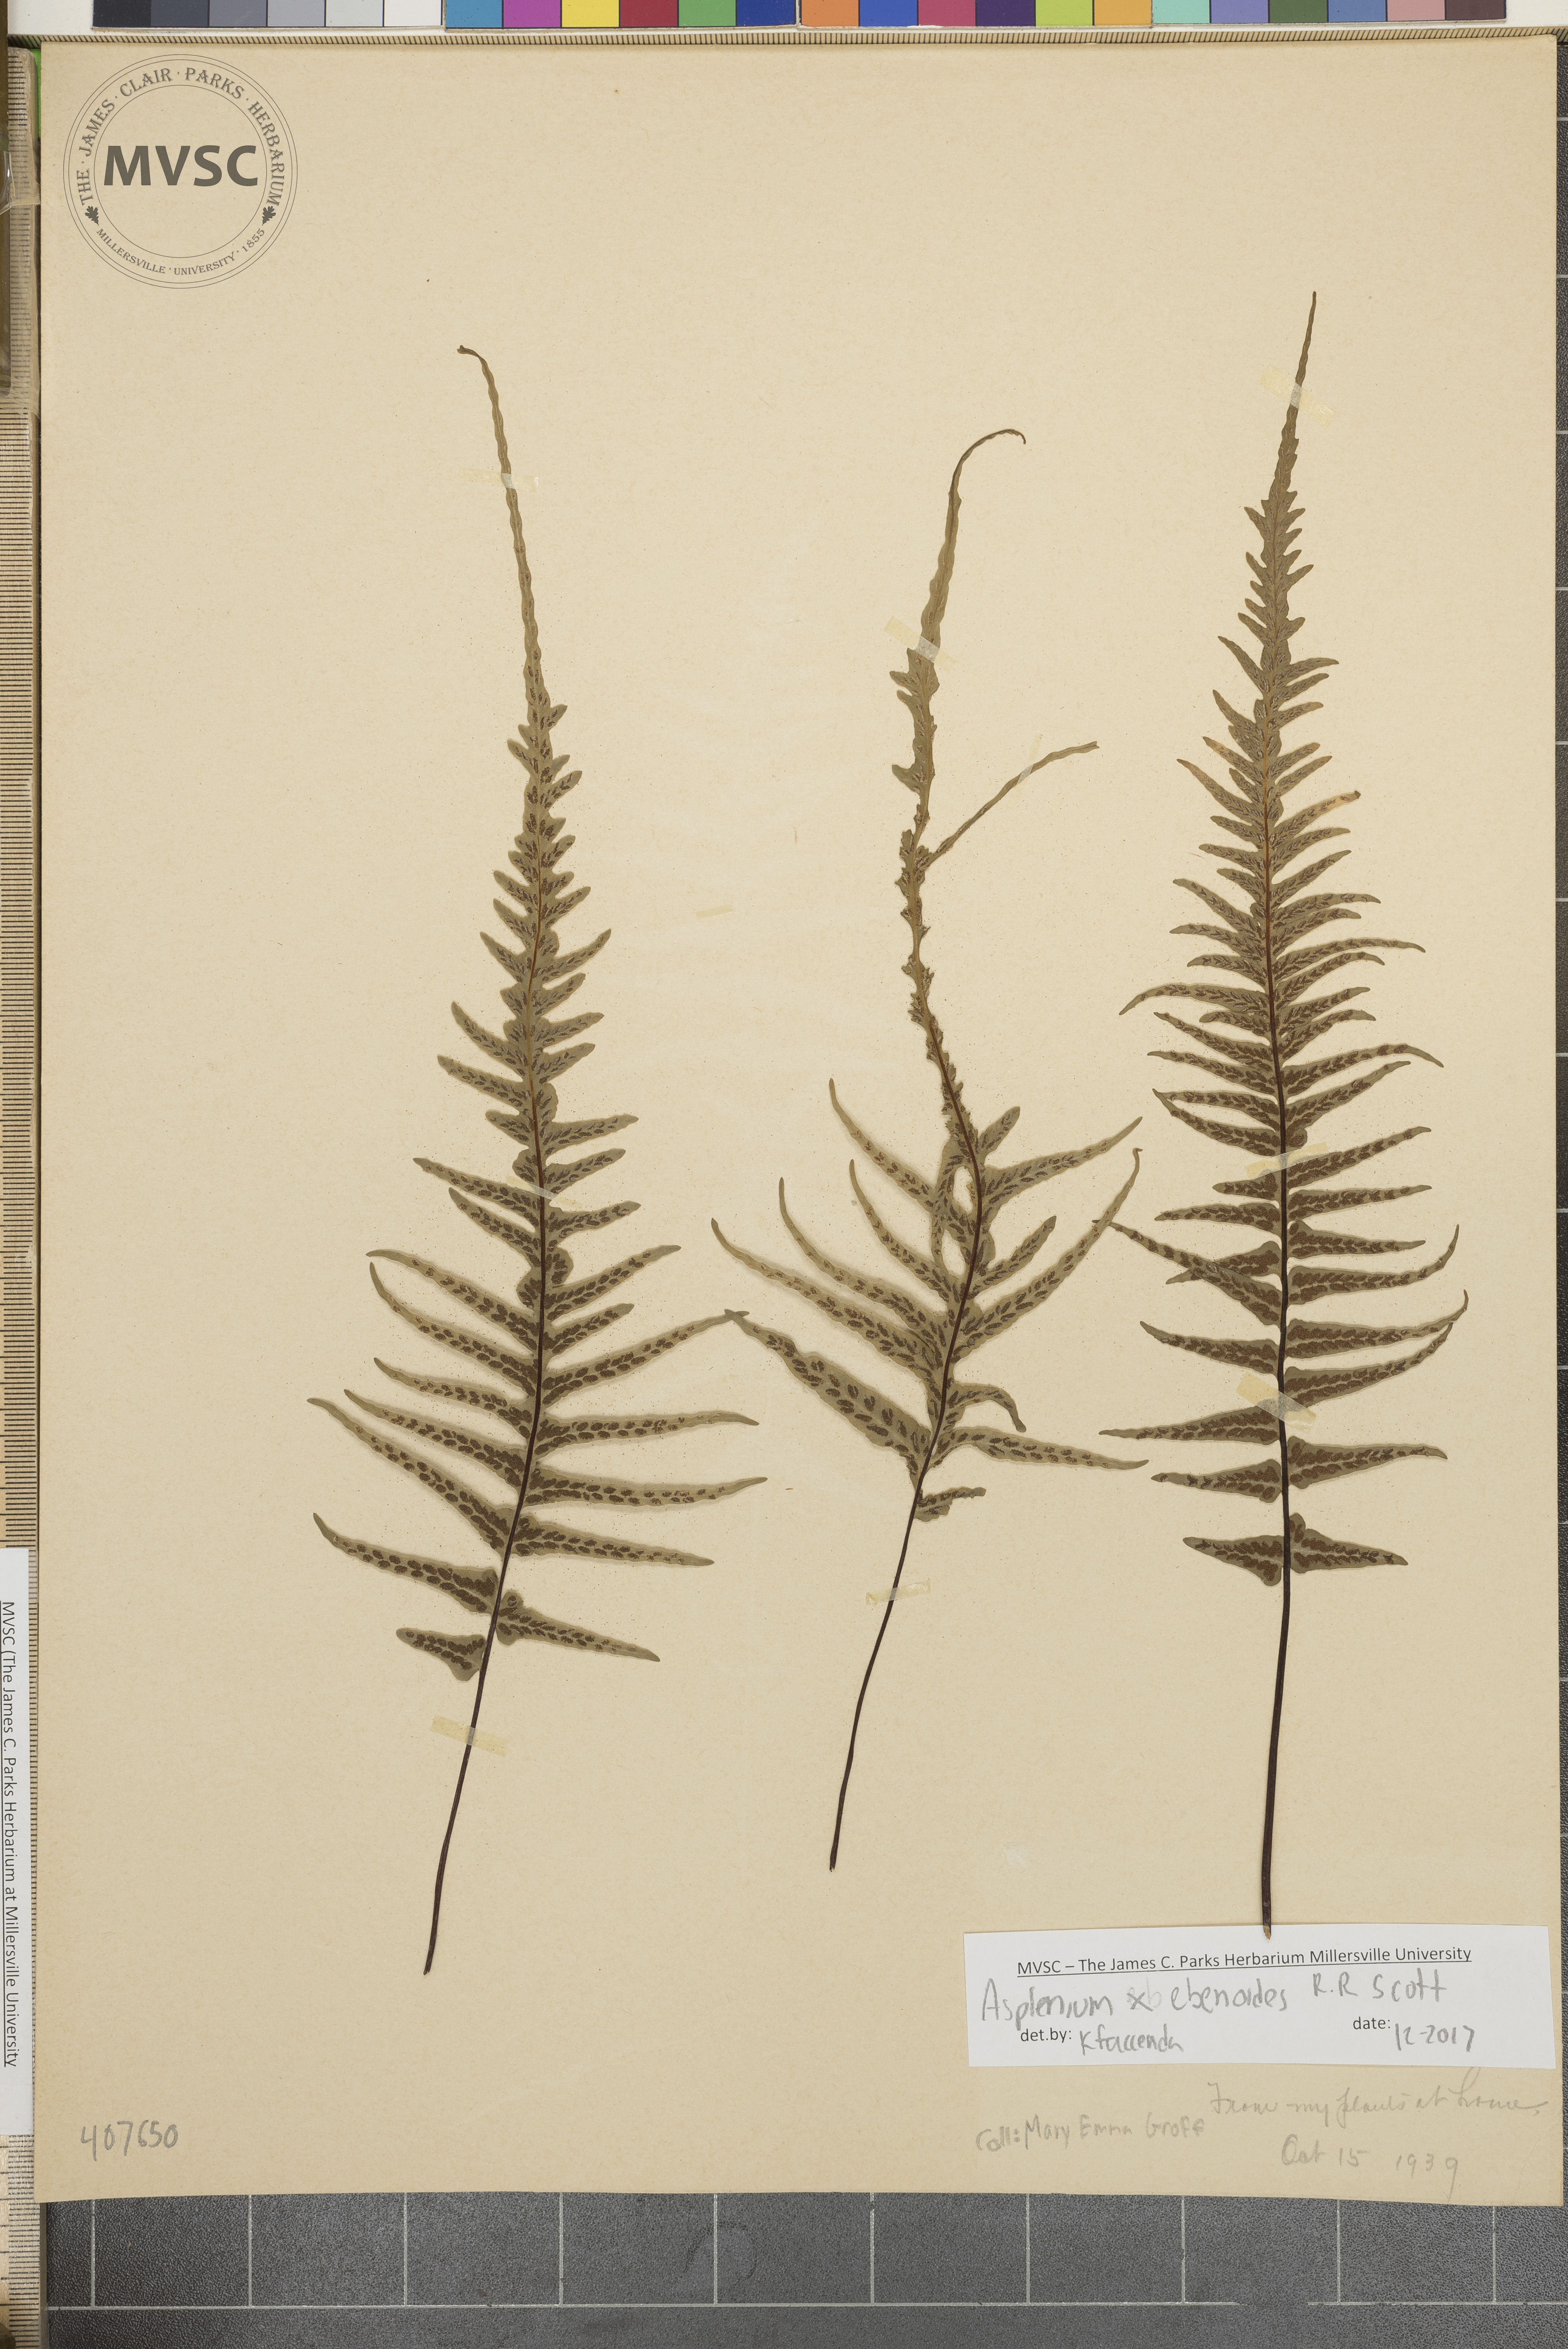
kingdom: Plantae
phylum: Tracheophyta
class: Polypodiopsida
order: Polypodiales
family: Aspleniaceae
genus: Asplenium
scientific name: Asplenium ebenoides
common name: Dragon-tail fern
